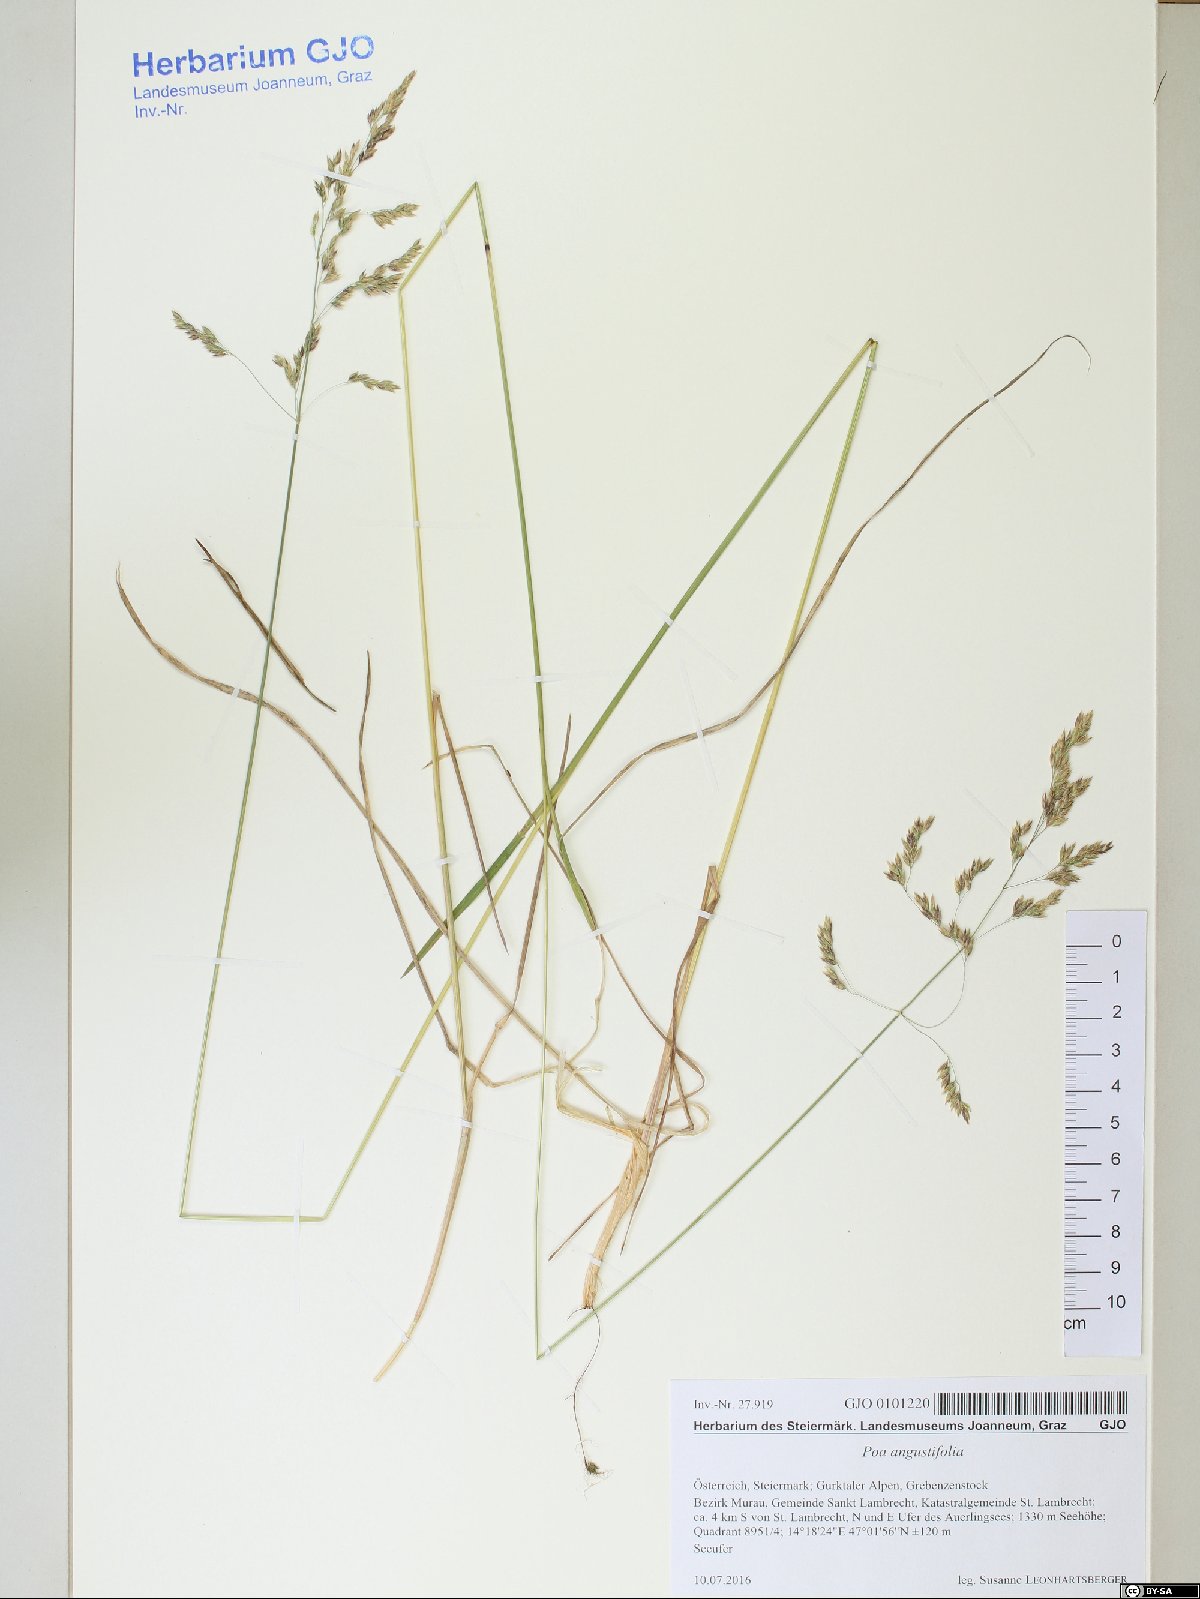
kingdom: Plantae
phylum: Tracheophyta
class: Liliopsida
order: Poales
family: Poaceae
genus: Poa
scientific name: Poa angustifolia
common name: Narrow-leaved meadow-grass
